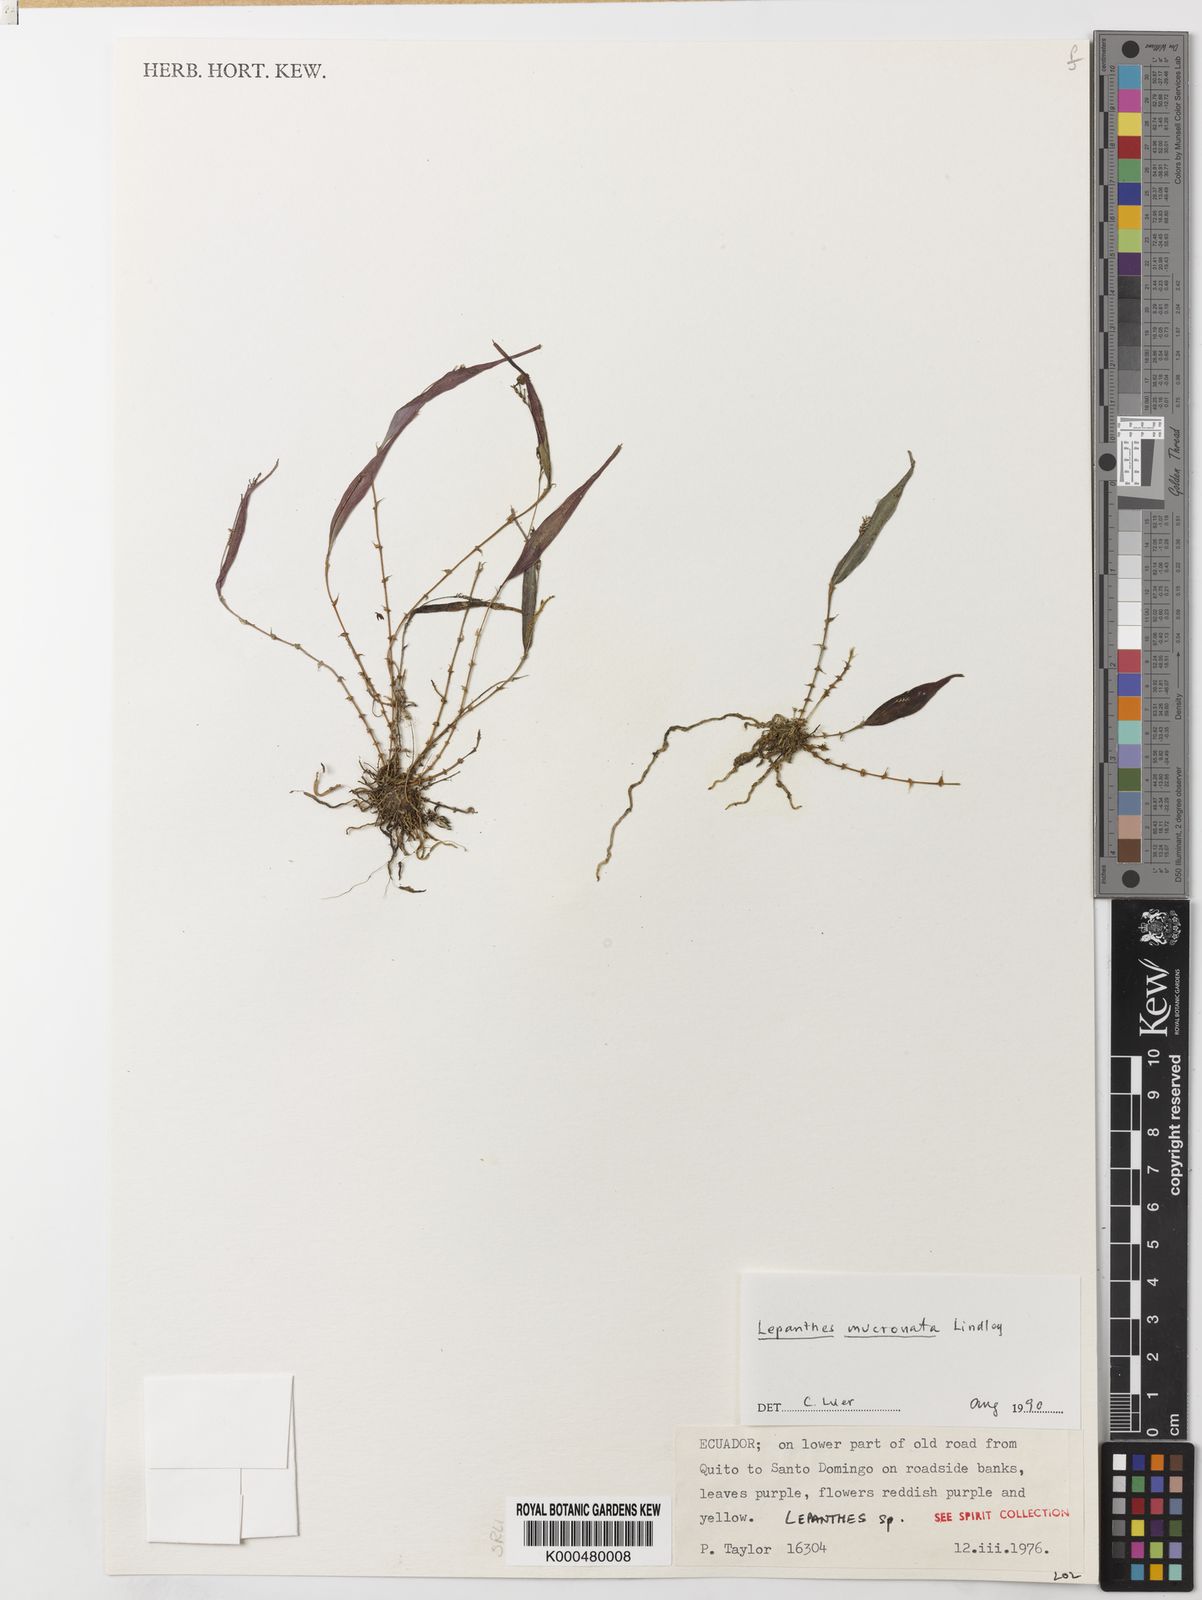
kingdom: Plantae
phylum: Tracheophyta
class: Liliopsida
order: Asparagales
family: Orchidaceae
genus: Lepanthes
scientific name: Lepanthes mucronata
